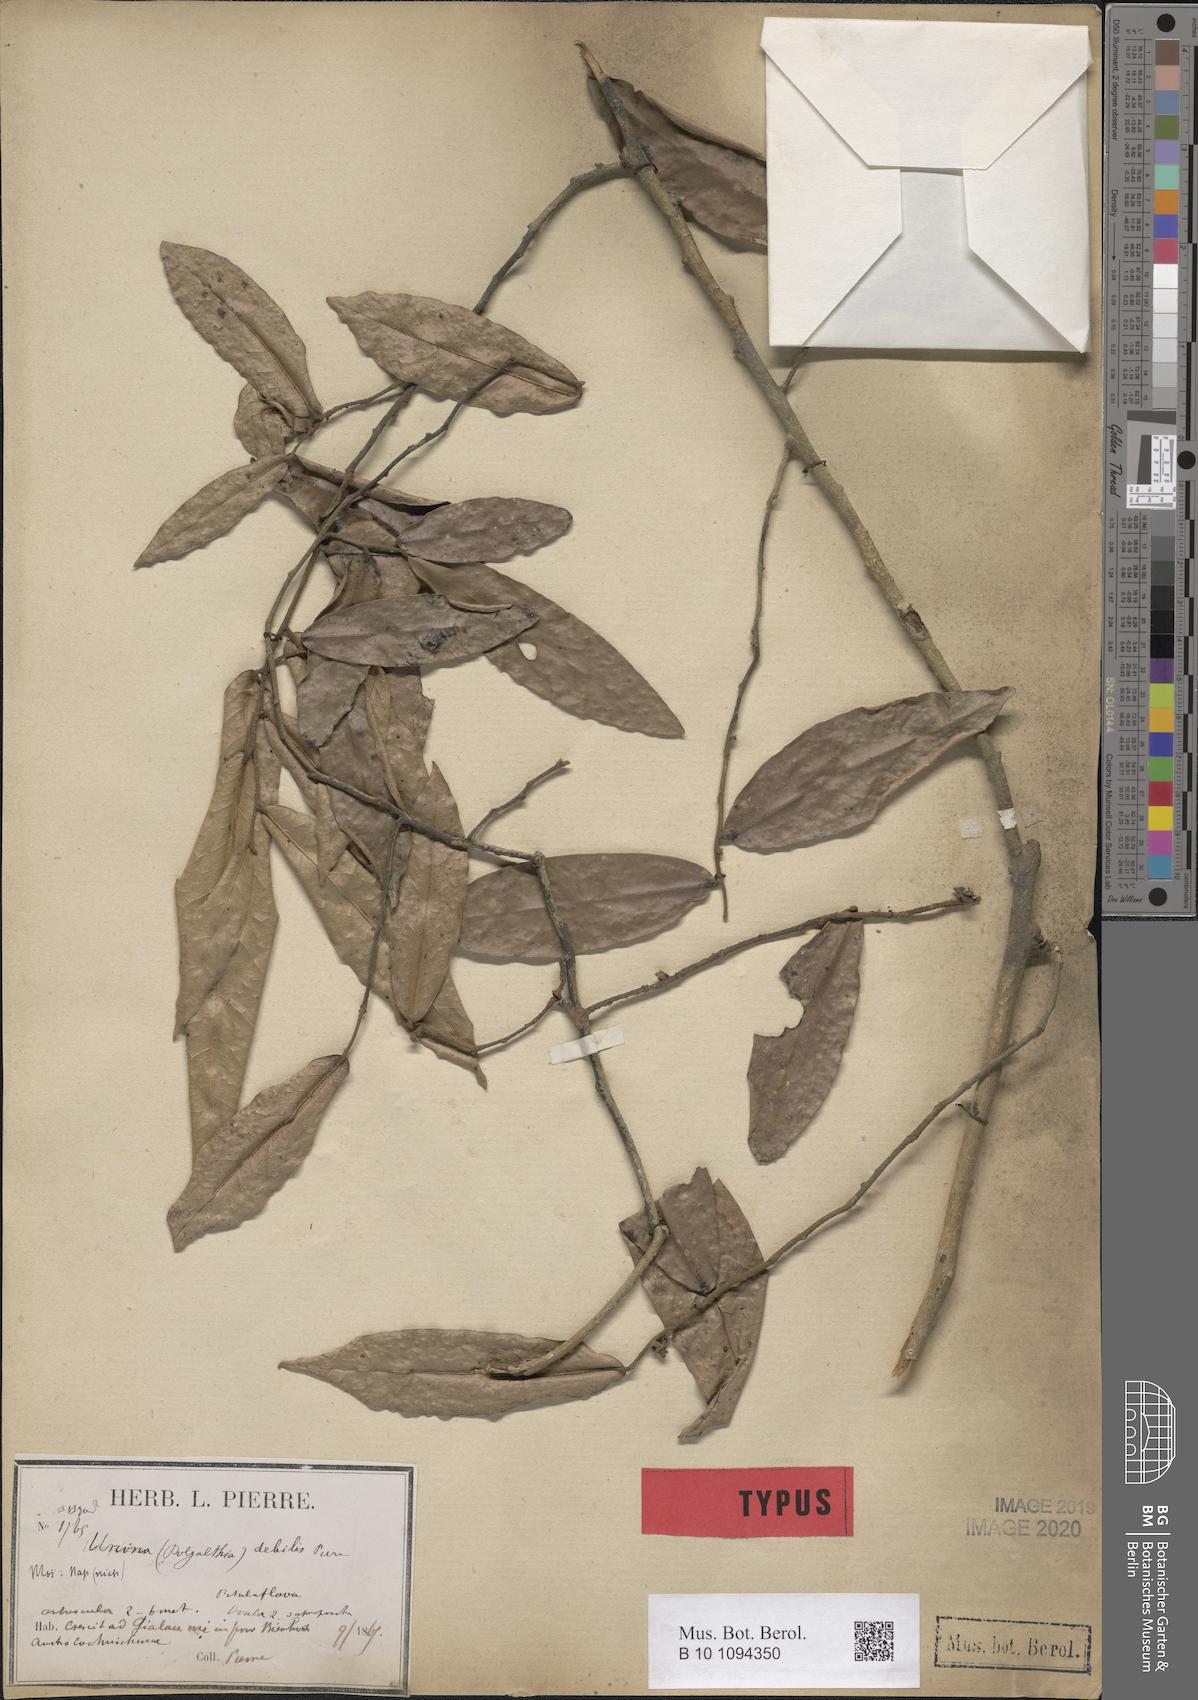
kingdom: Plantae
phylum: Tracheophyta
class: Magnoliopsida
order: Magnoliales
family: Annonaceae
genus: Polyalthia
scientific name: Polyalthia debilis
